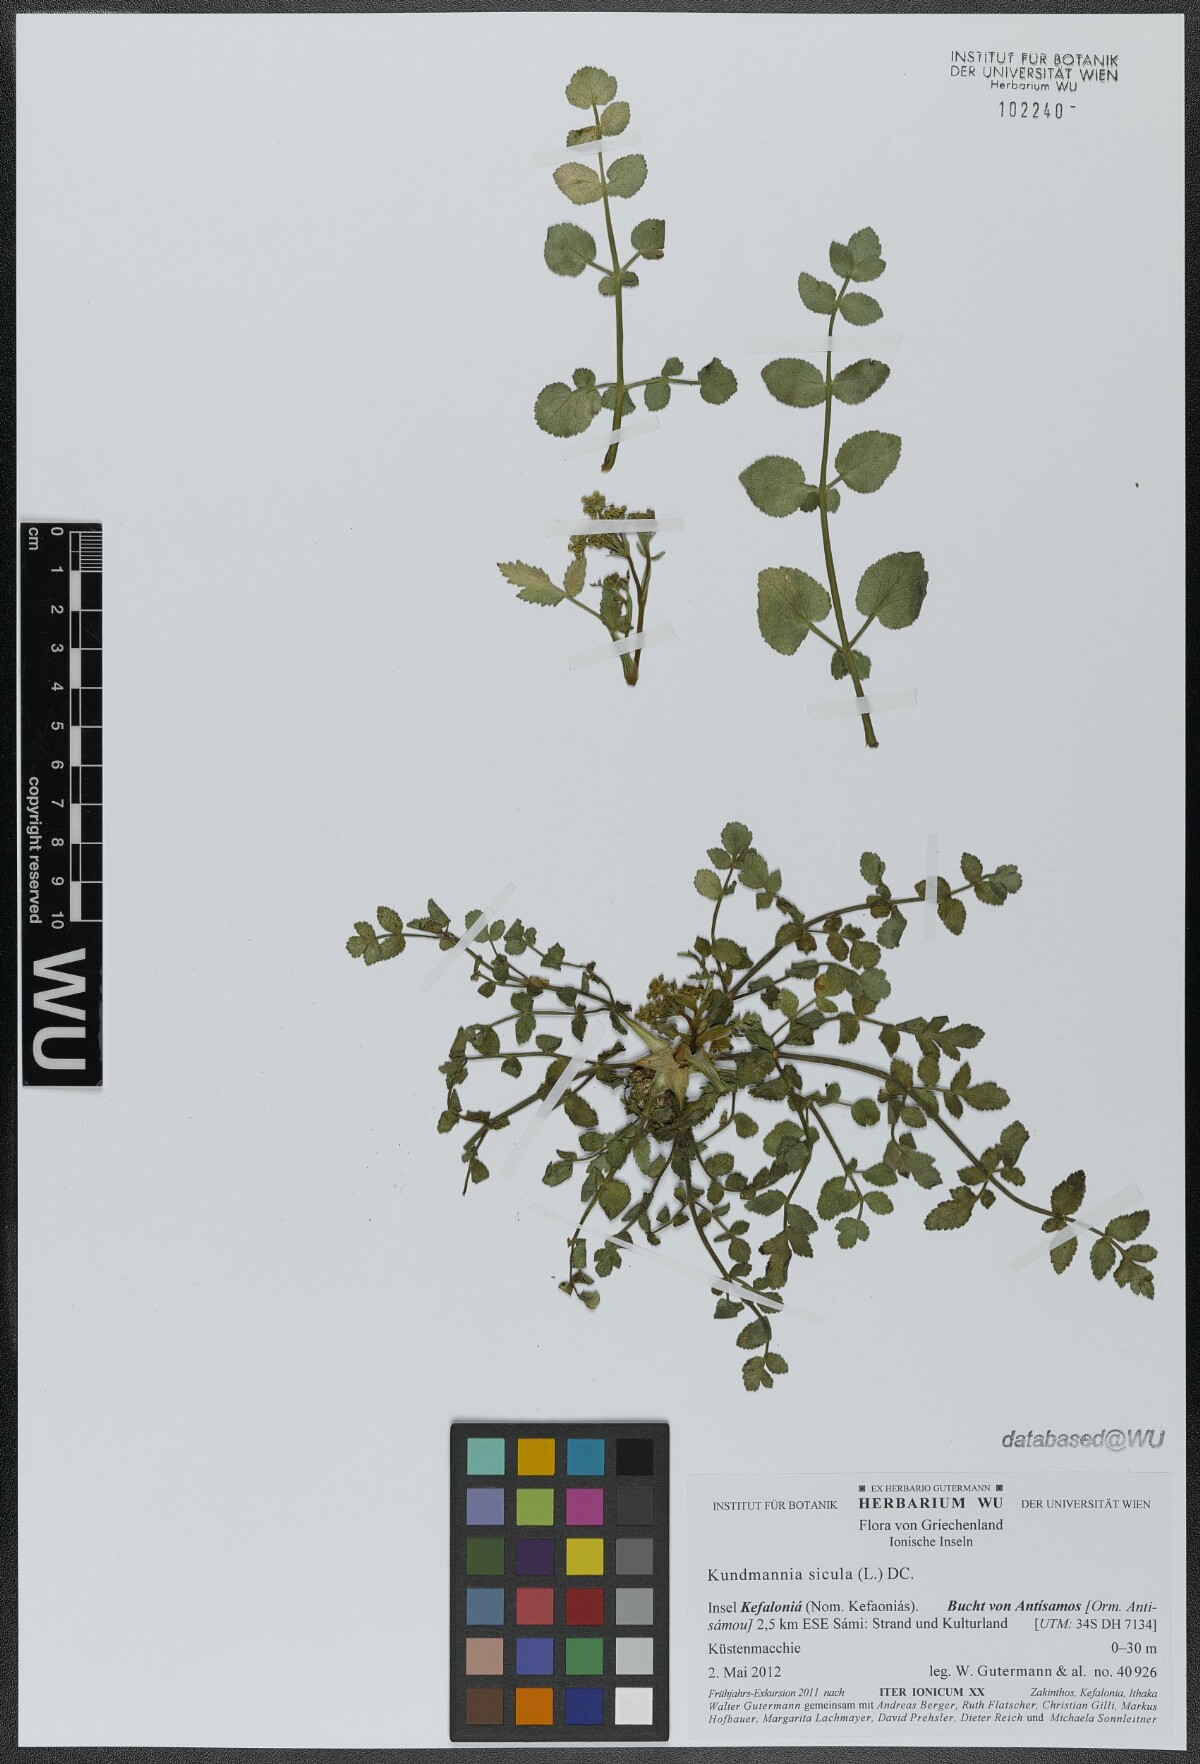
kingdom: Plantae
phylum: Tracheophyta
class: Magnoliopsida
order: Apiales
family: Apiaceae
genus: Kundmannia
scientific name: Kundmannia sicula
